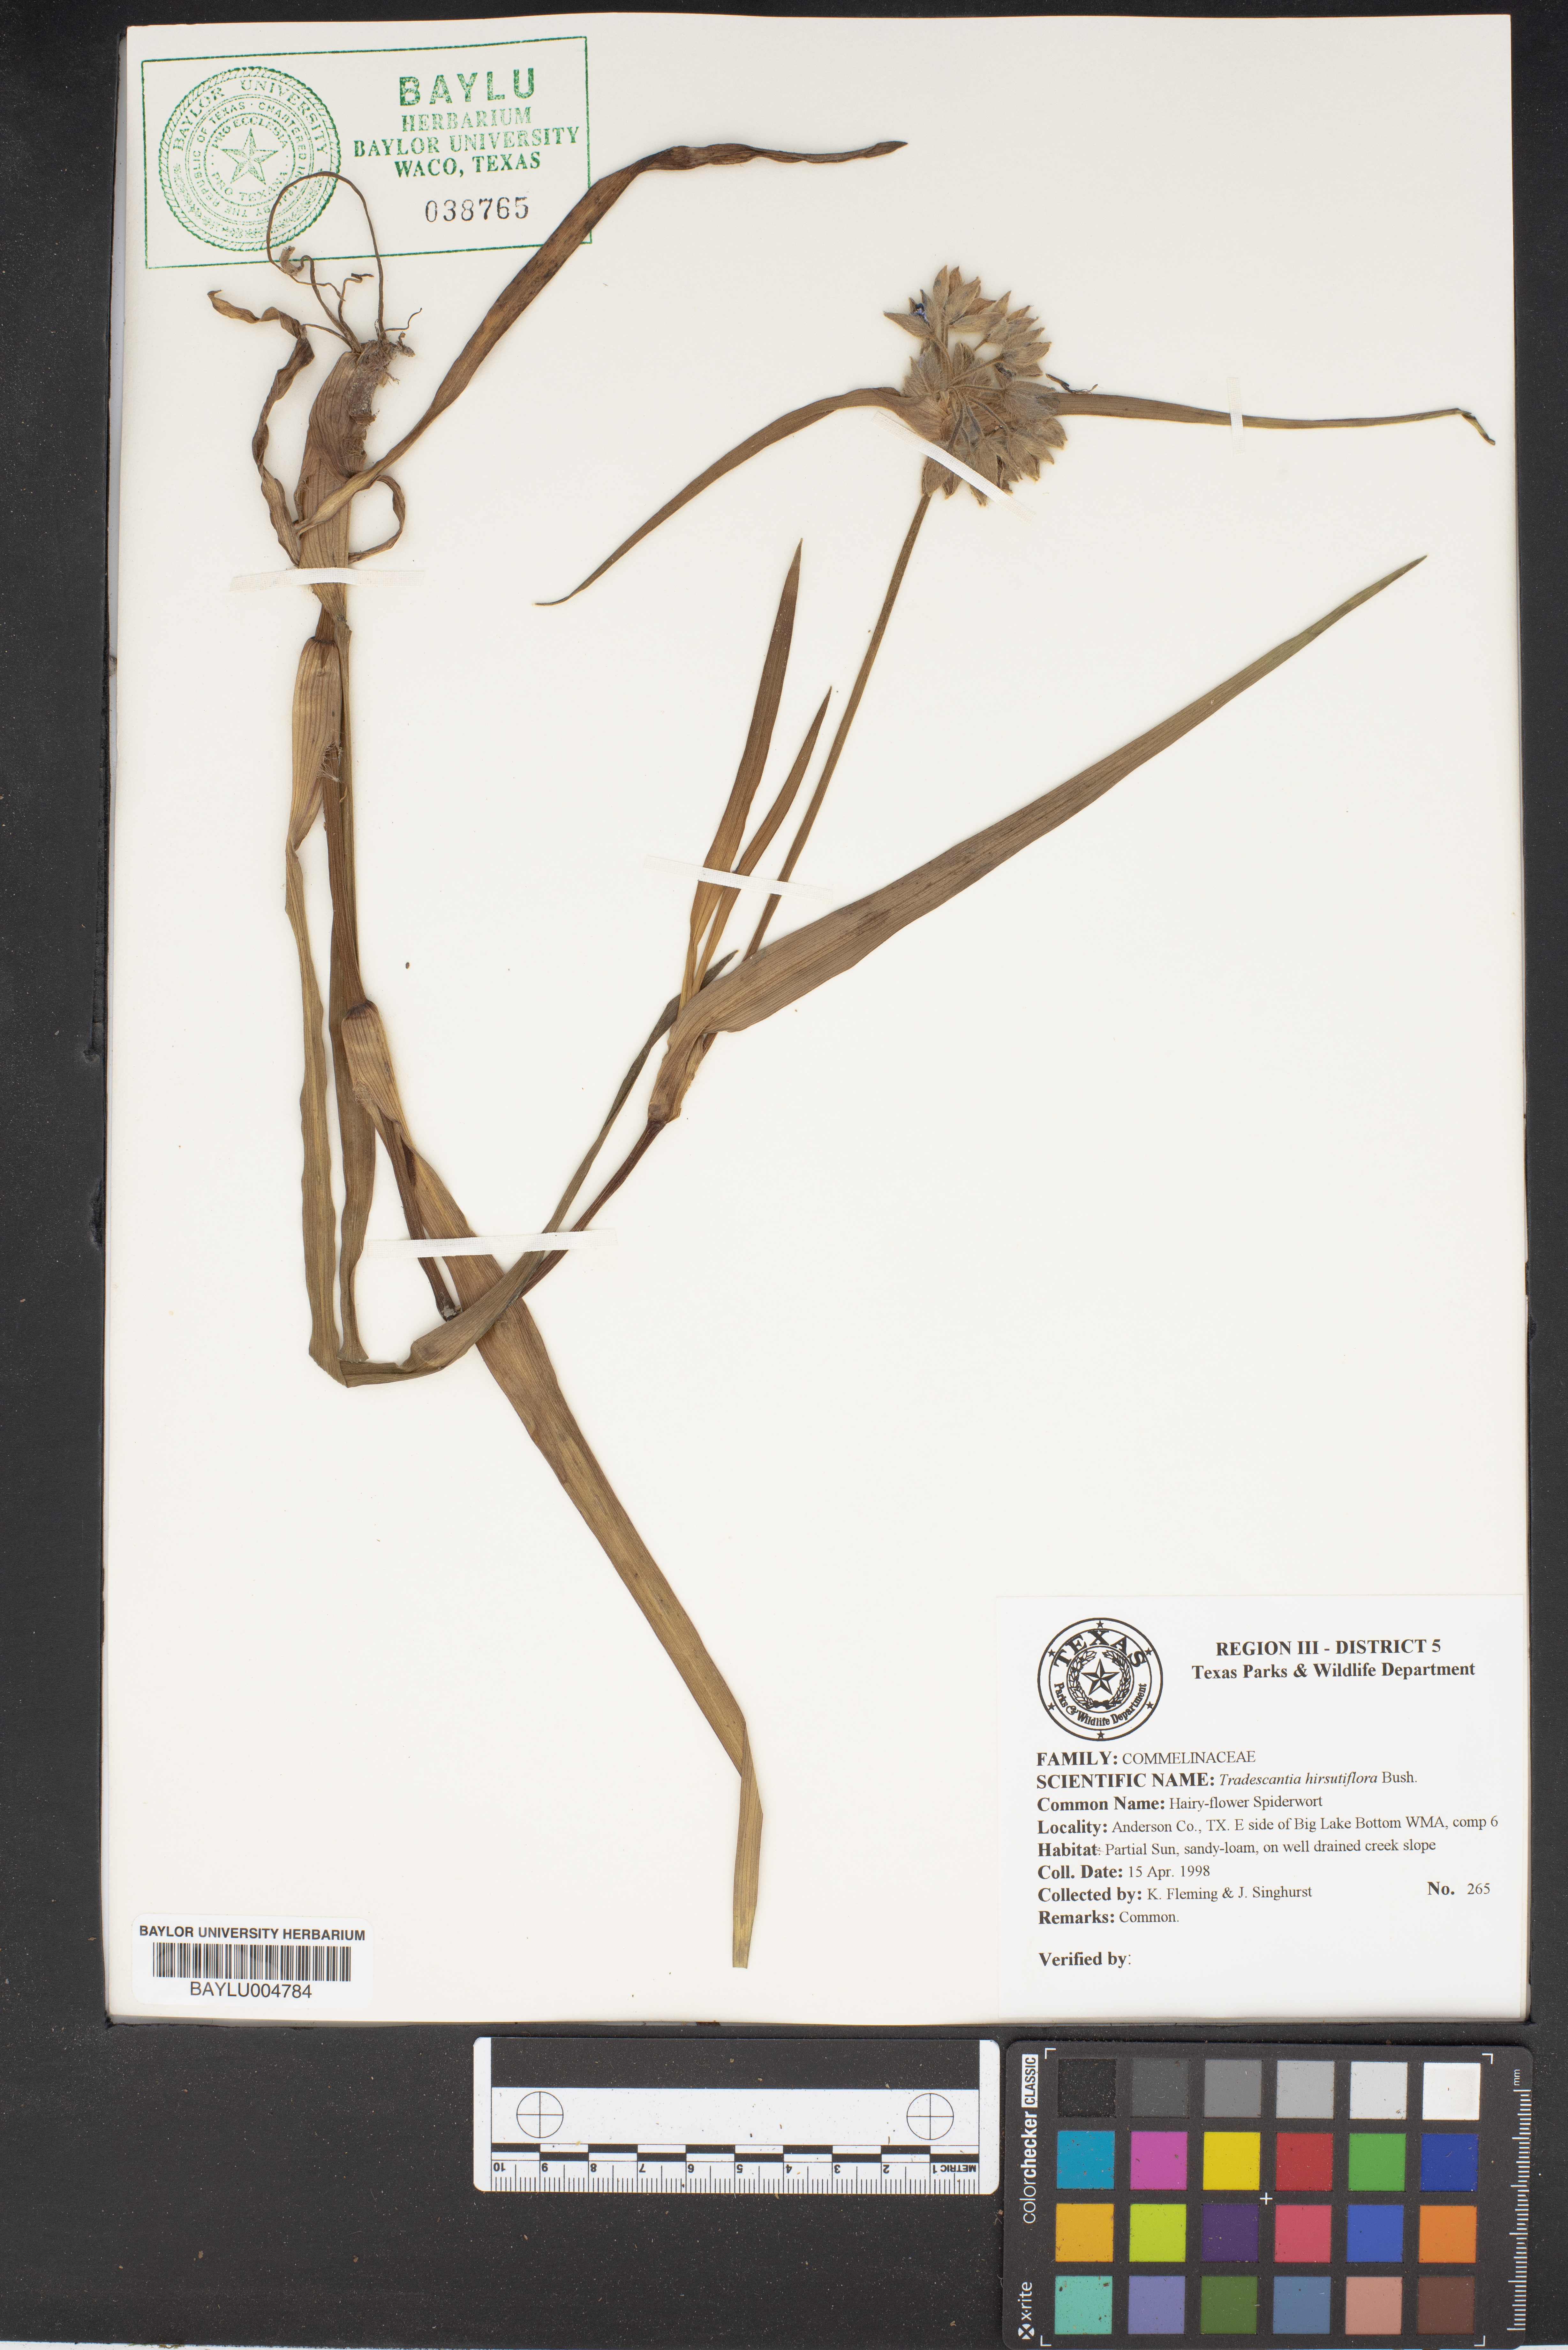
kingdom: Plantae
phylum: Tracheophyta
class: Liliopsida
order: Commelinales
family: Commelinaceae
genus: Tradescantia
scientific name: Tradescantia hirsutiflora
